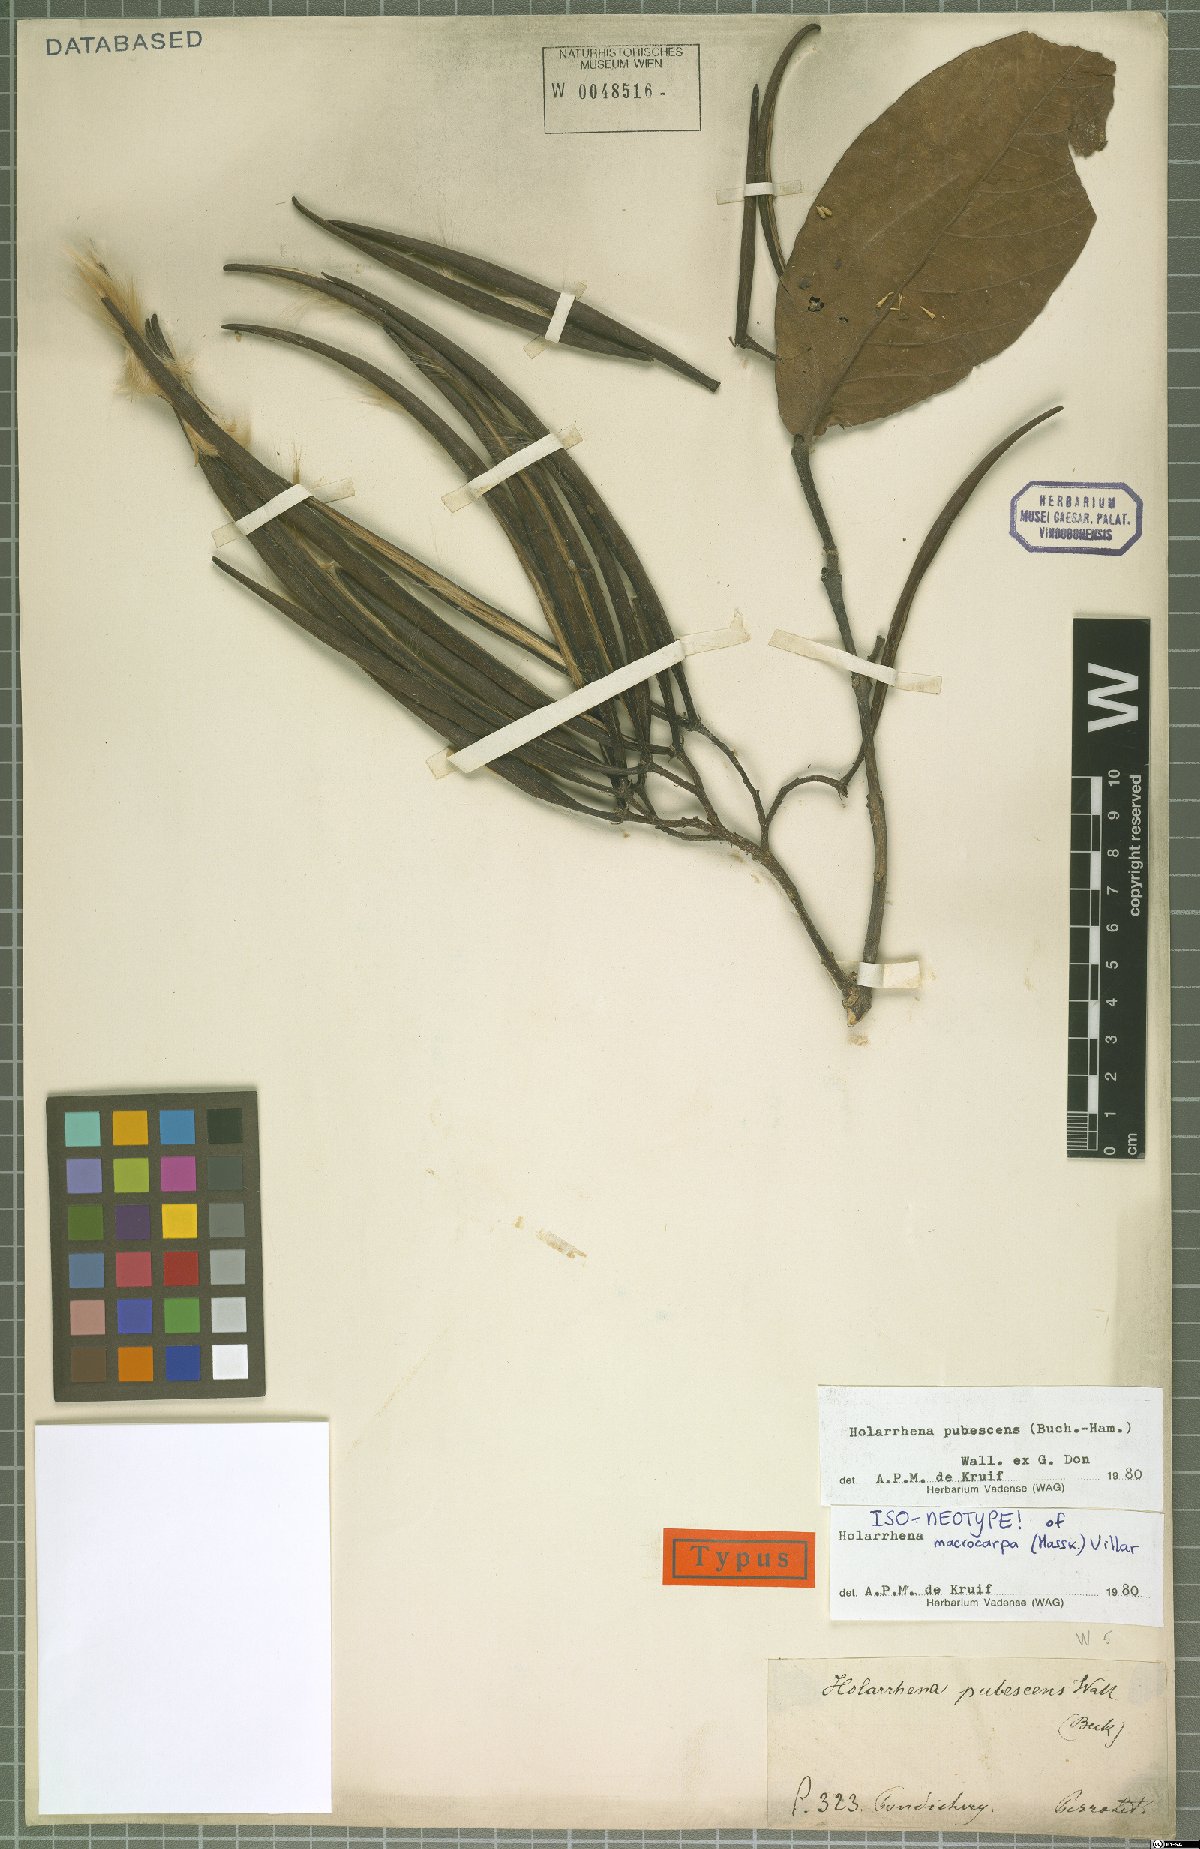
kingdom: Plantae
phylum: Tracheophyta
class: Magnoliopsida
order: Gentianales
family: Apocynaceae
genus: Holarrhena
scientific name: Holarrhena pubescens
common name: Bitter oleander
